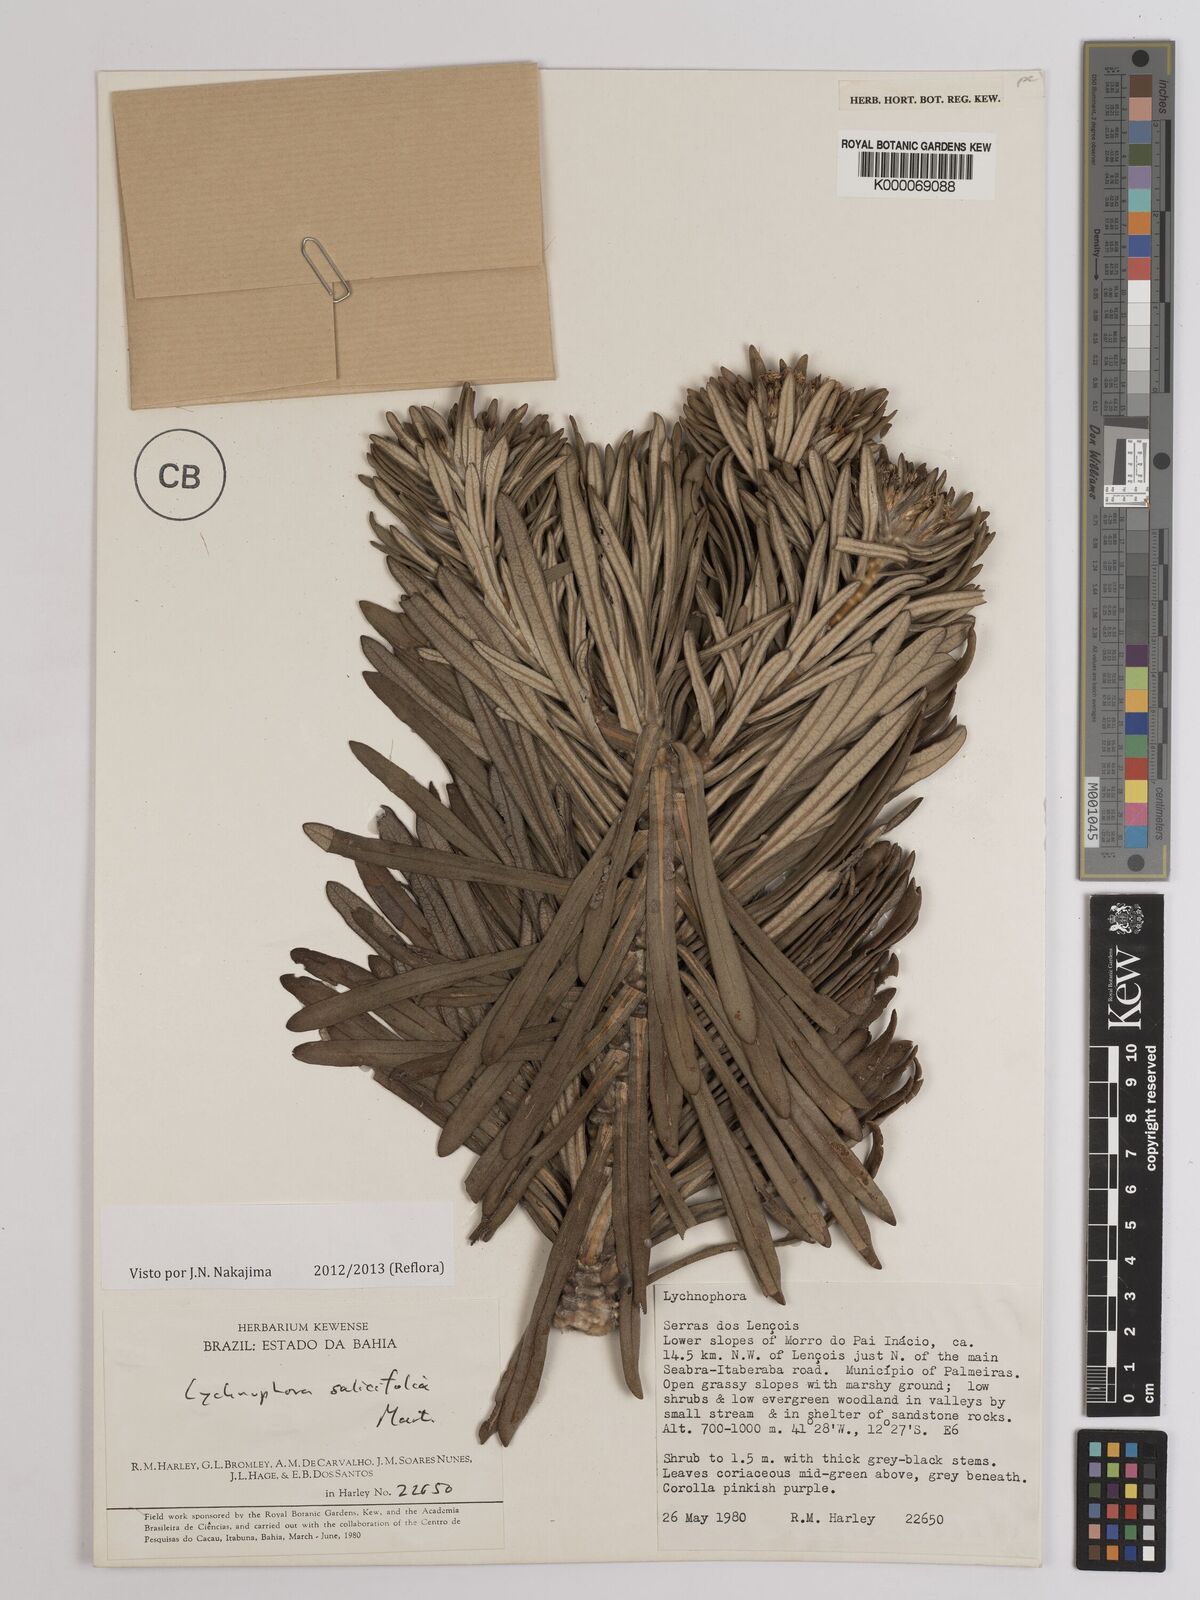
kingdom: Plantae
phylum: Tracheophyta
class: Magnoliopsida
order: Asterales
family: Asteraceae
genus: Lychnophora
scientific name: Lychnophora salicifolia
